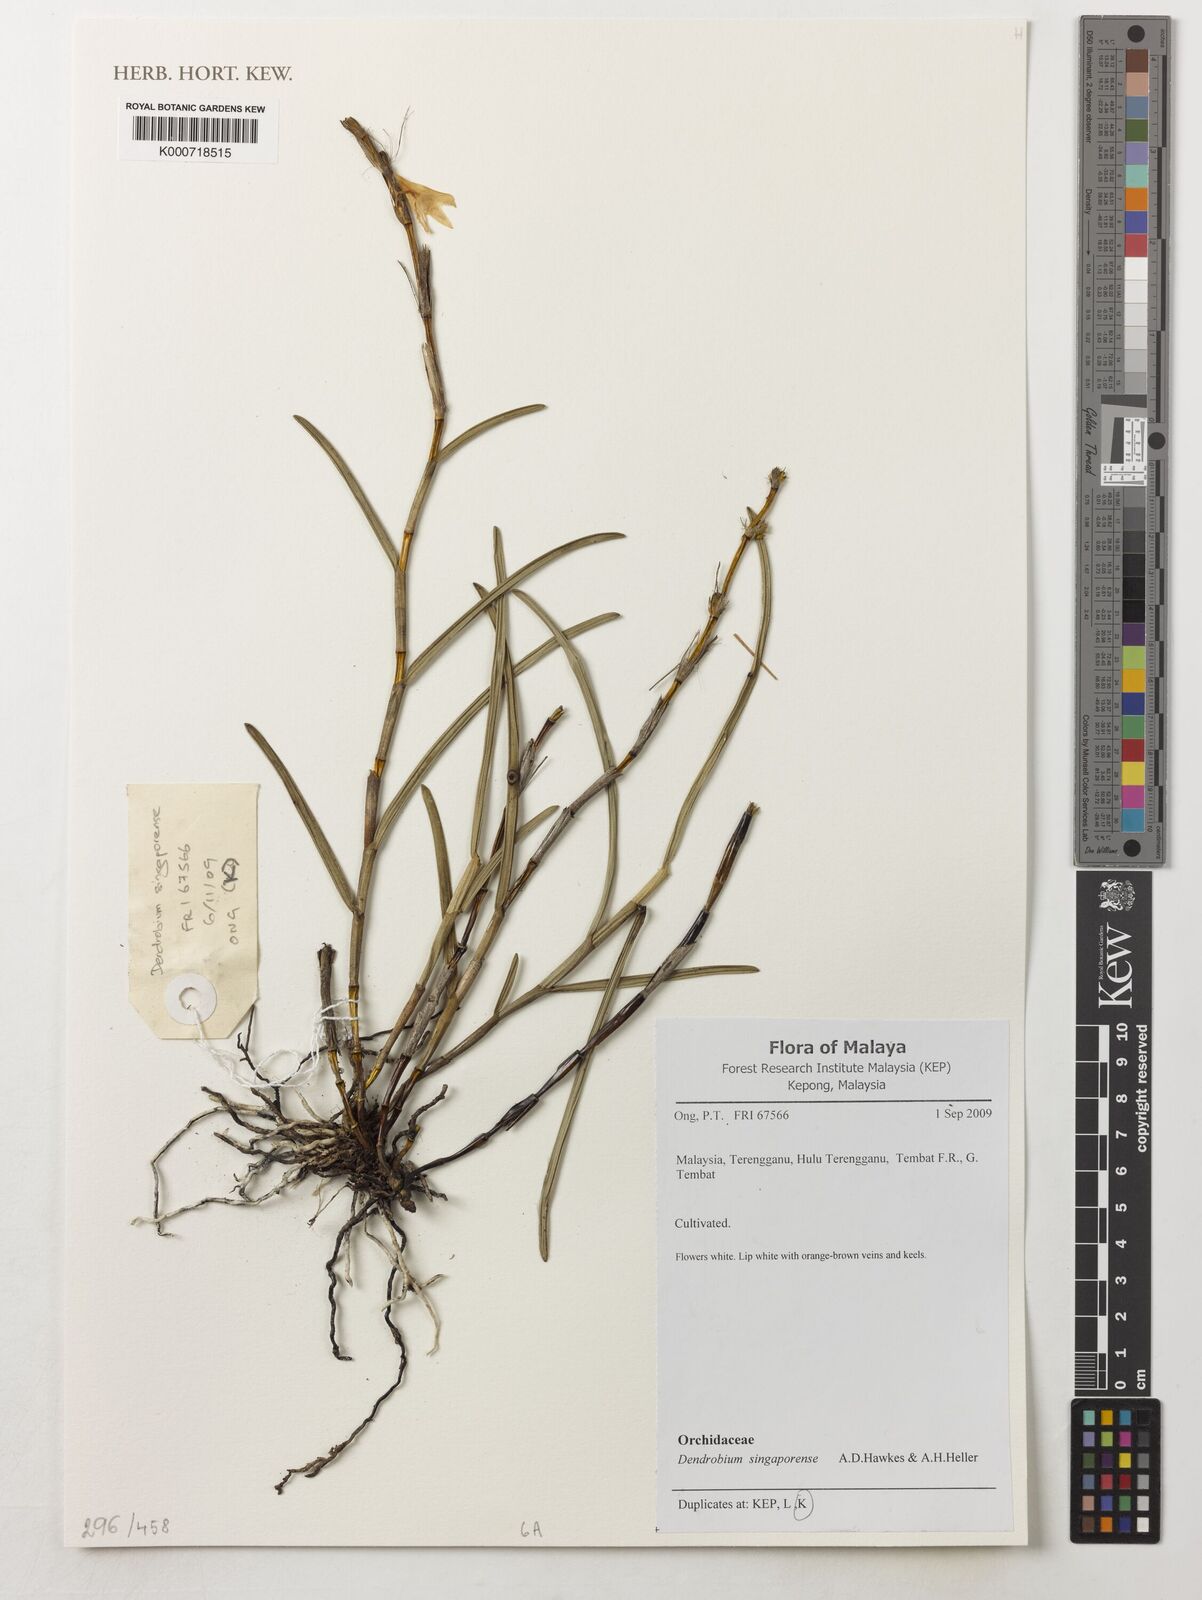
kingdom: Plantae
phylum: Tracheophyta
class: Liliopsida
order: Asparagales
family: Orchidaceae
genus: Dendrobium
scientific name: Dendrobium singaporense
